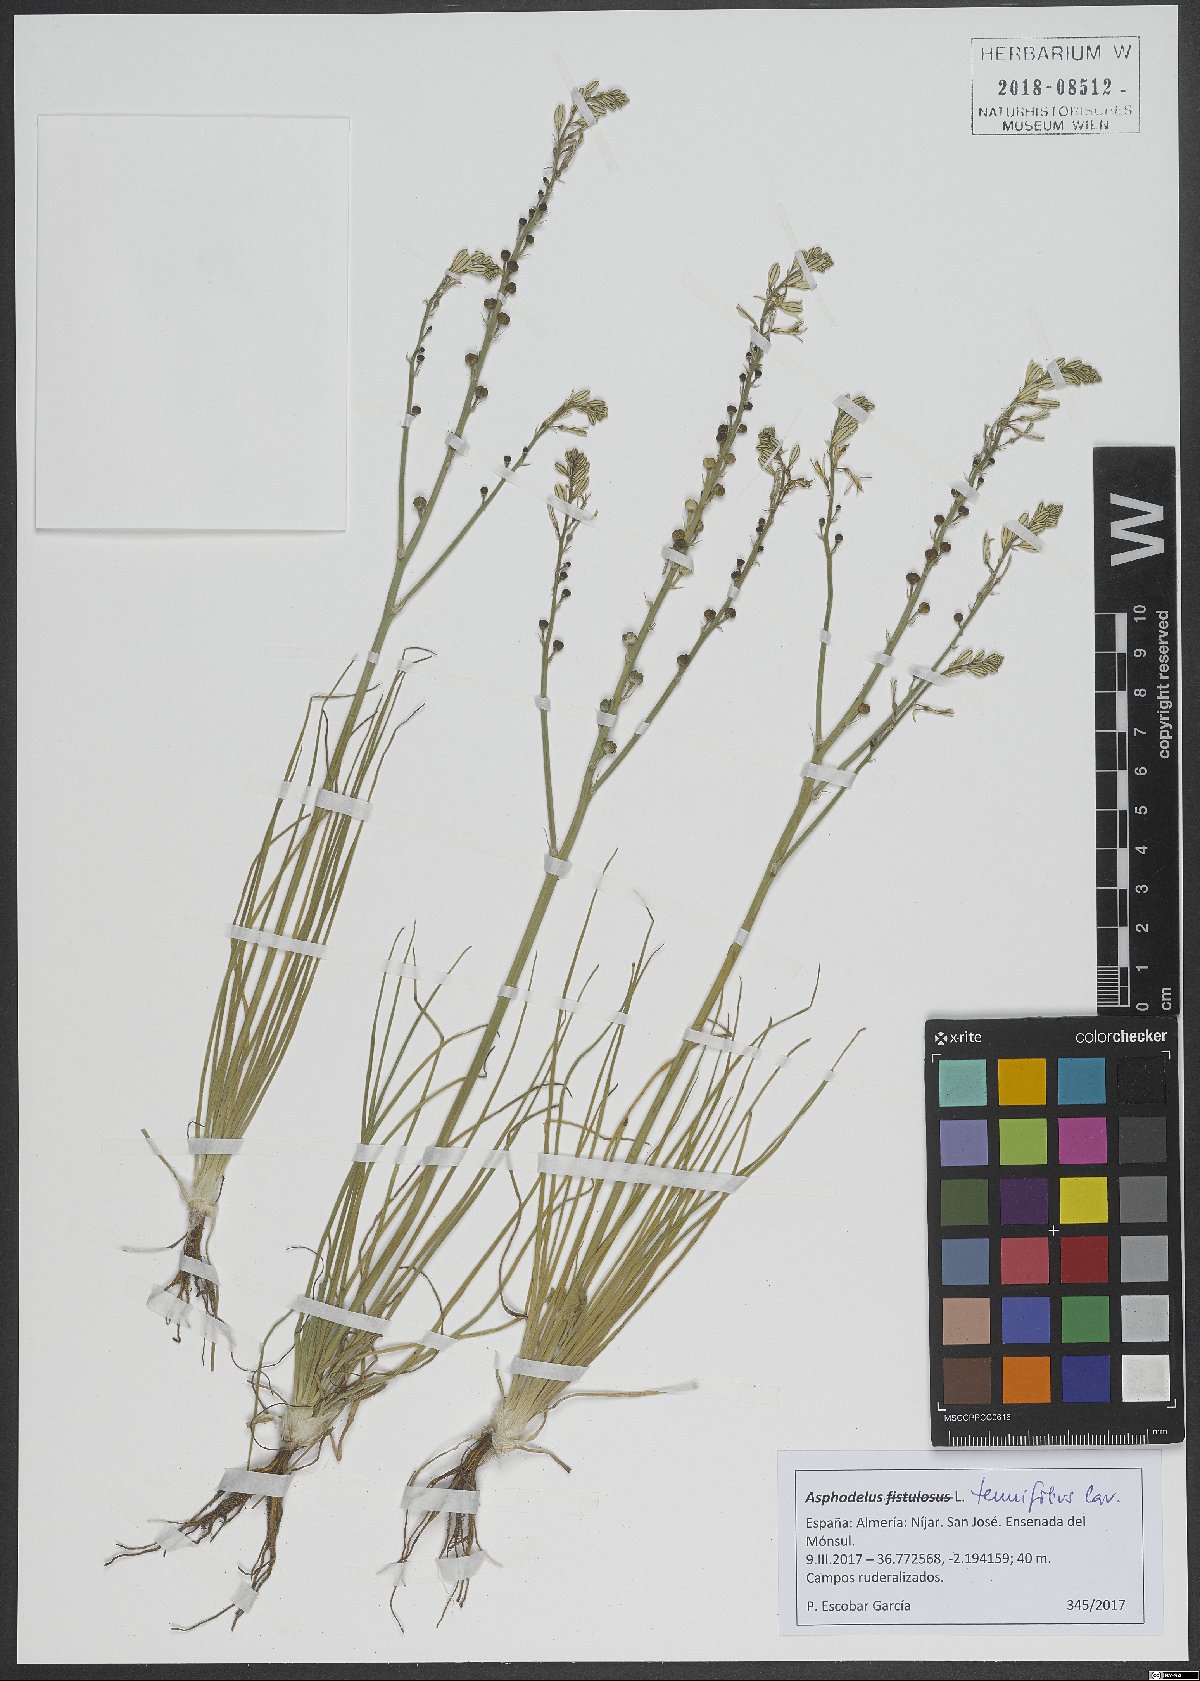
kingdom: Plantae
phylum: Tracheophyta
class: Liliopsida
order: Asparagales
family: Asphodelaceae
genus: Asphodelus
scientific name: Asphodelus tenuifolius
